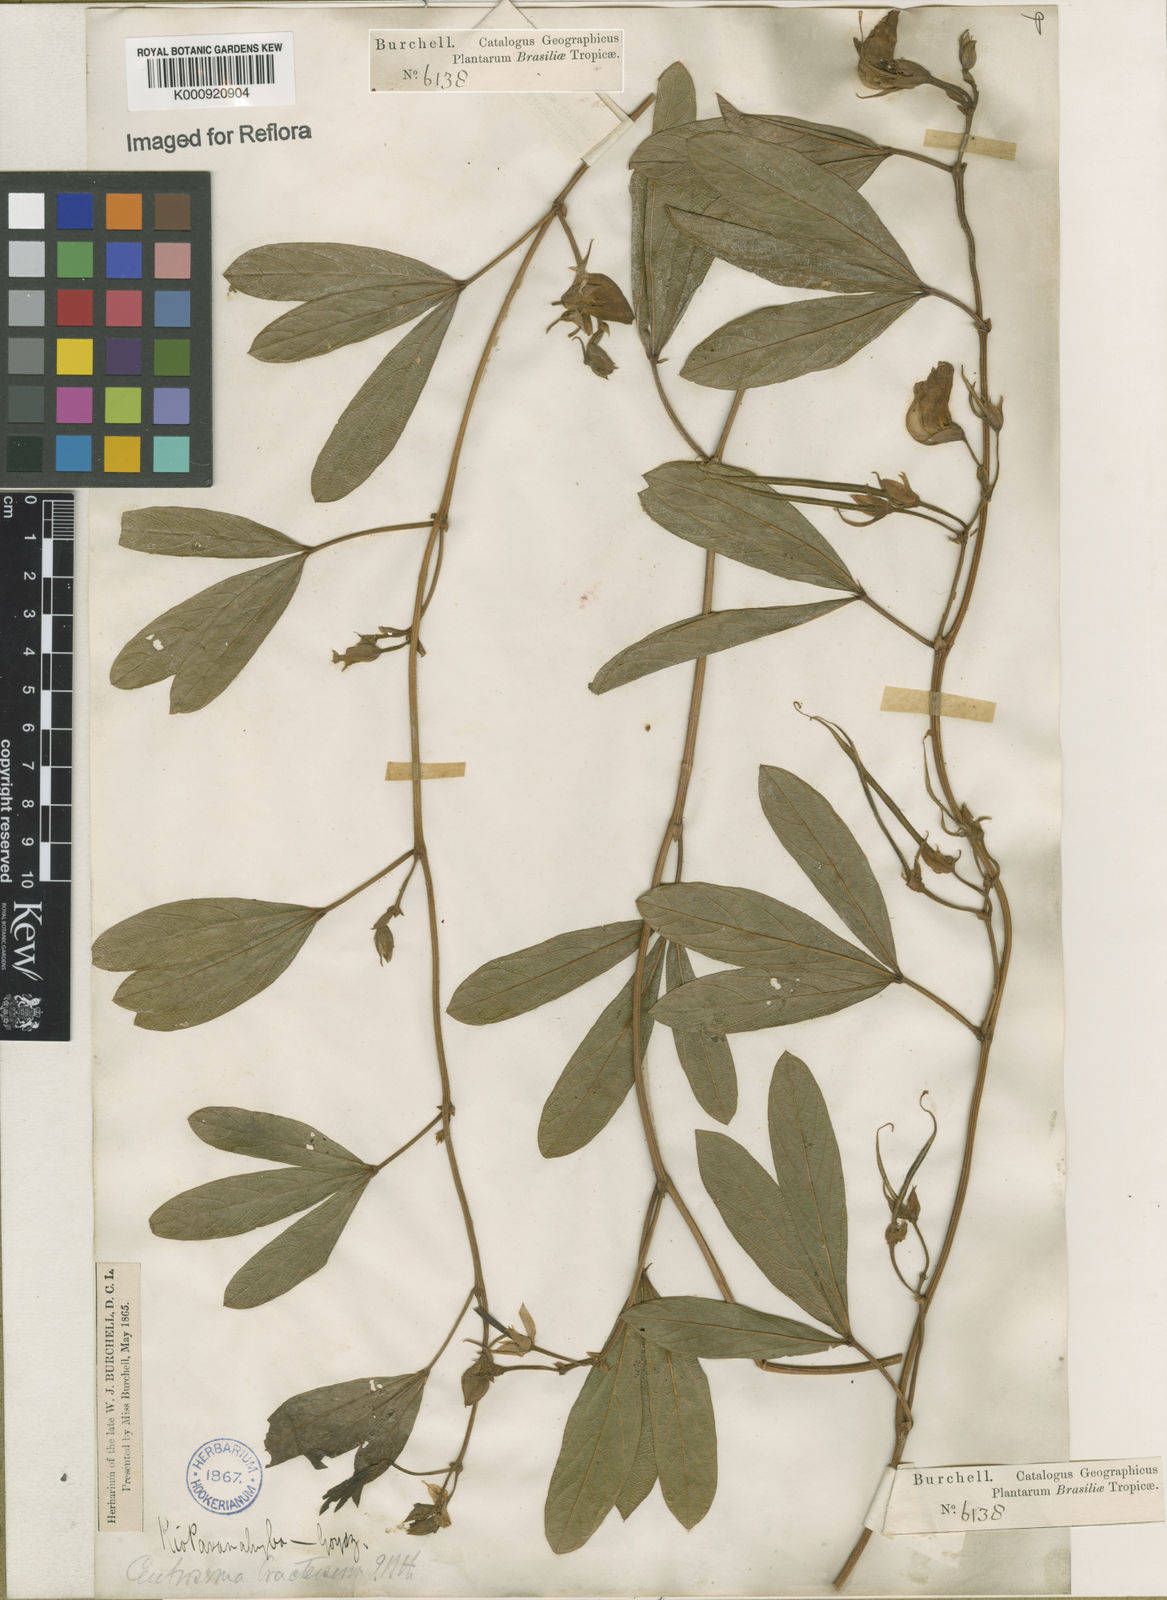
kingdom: Plantae
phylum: Tracheophyta
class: Magnoliopsida
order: Fabales
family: Fabaceae
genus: Centrosema
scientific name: Centrosema bracteosum
